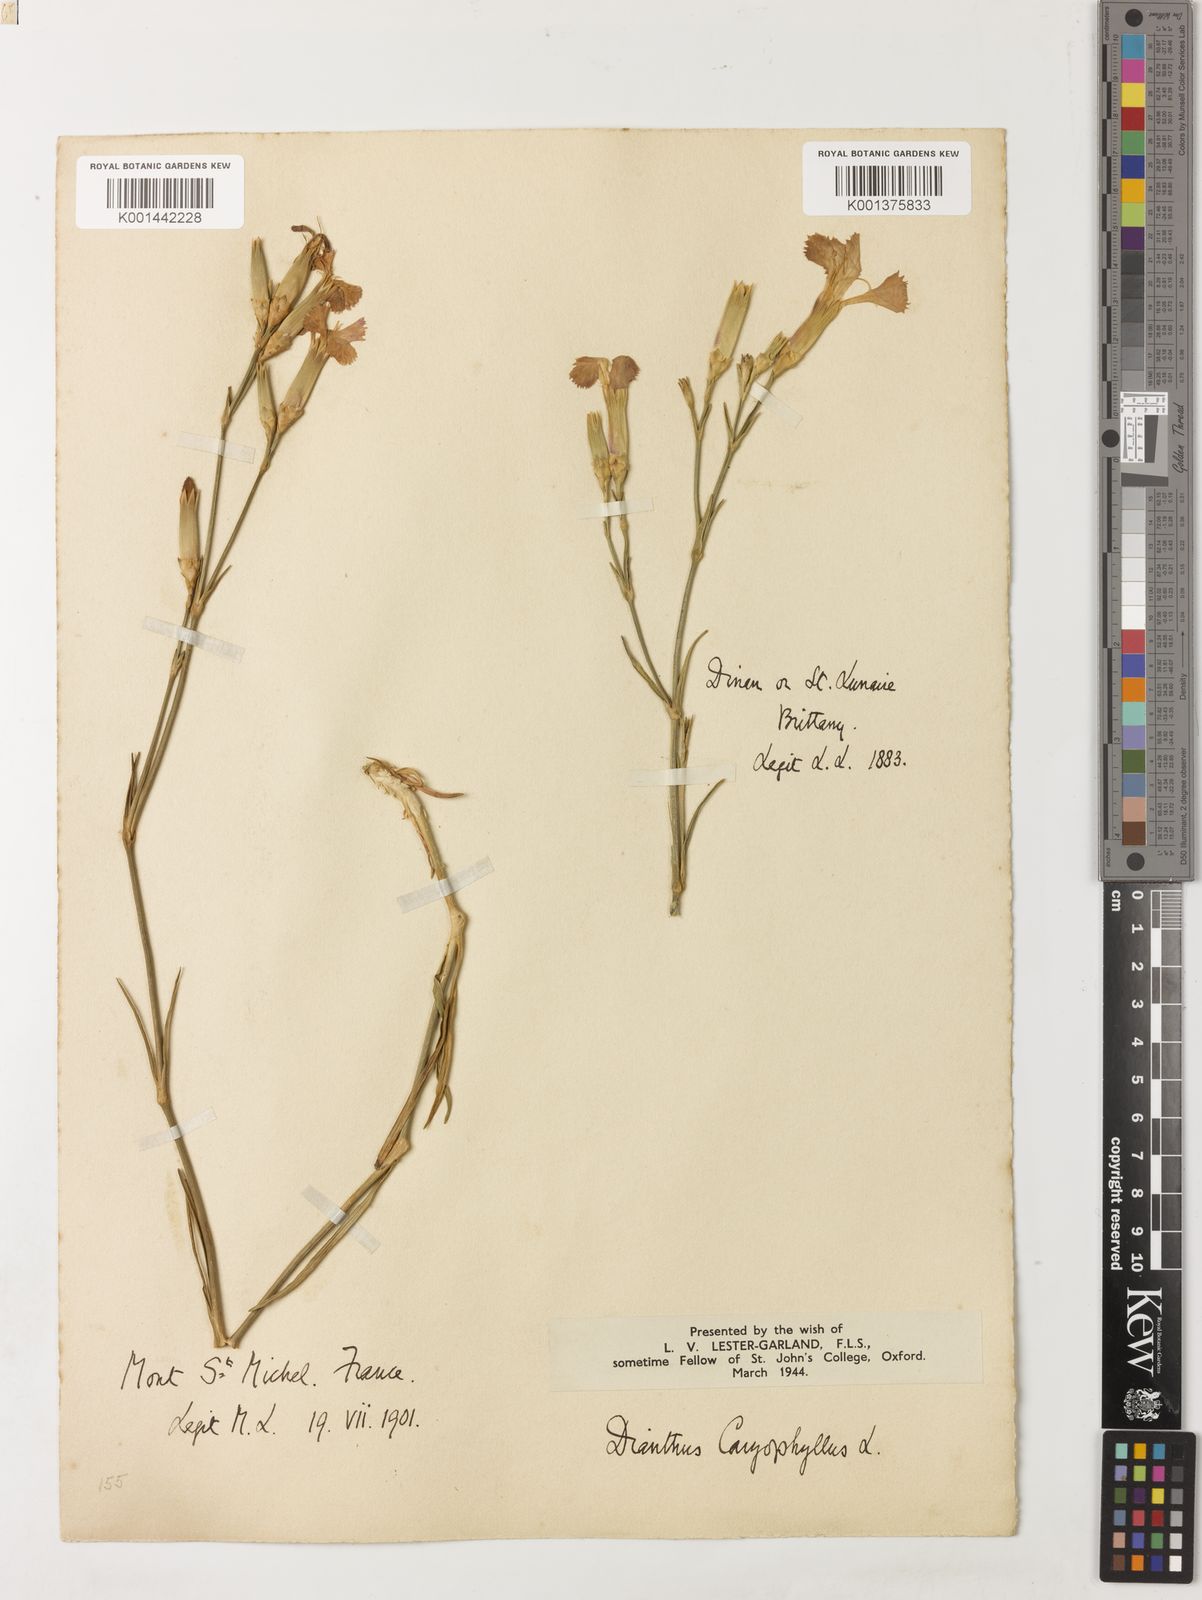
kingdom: Plantae
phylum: Tracheophyta
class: Magnoliopsida
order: Caryophyllales
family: Caryophyllaceae
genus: Dianthus
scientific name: Dianthus caryophyllus
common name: Clove pink
